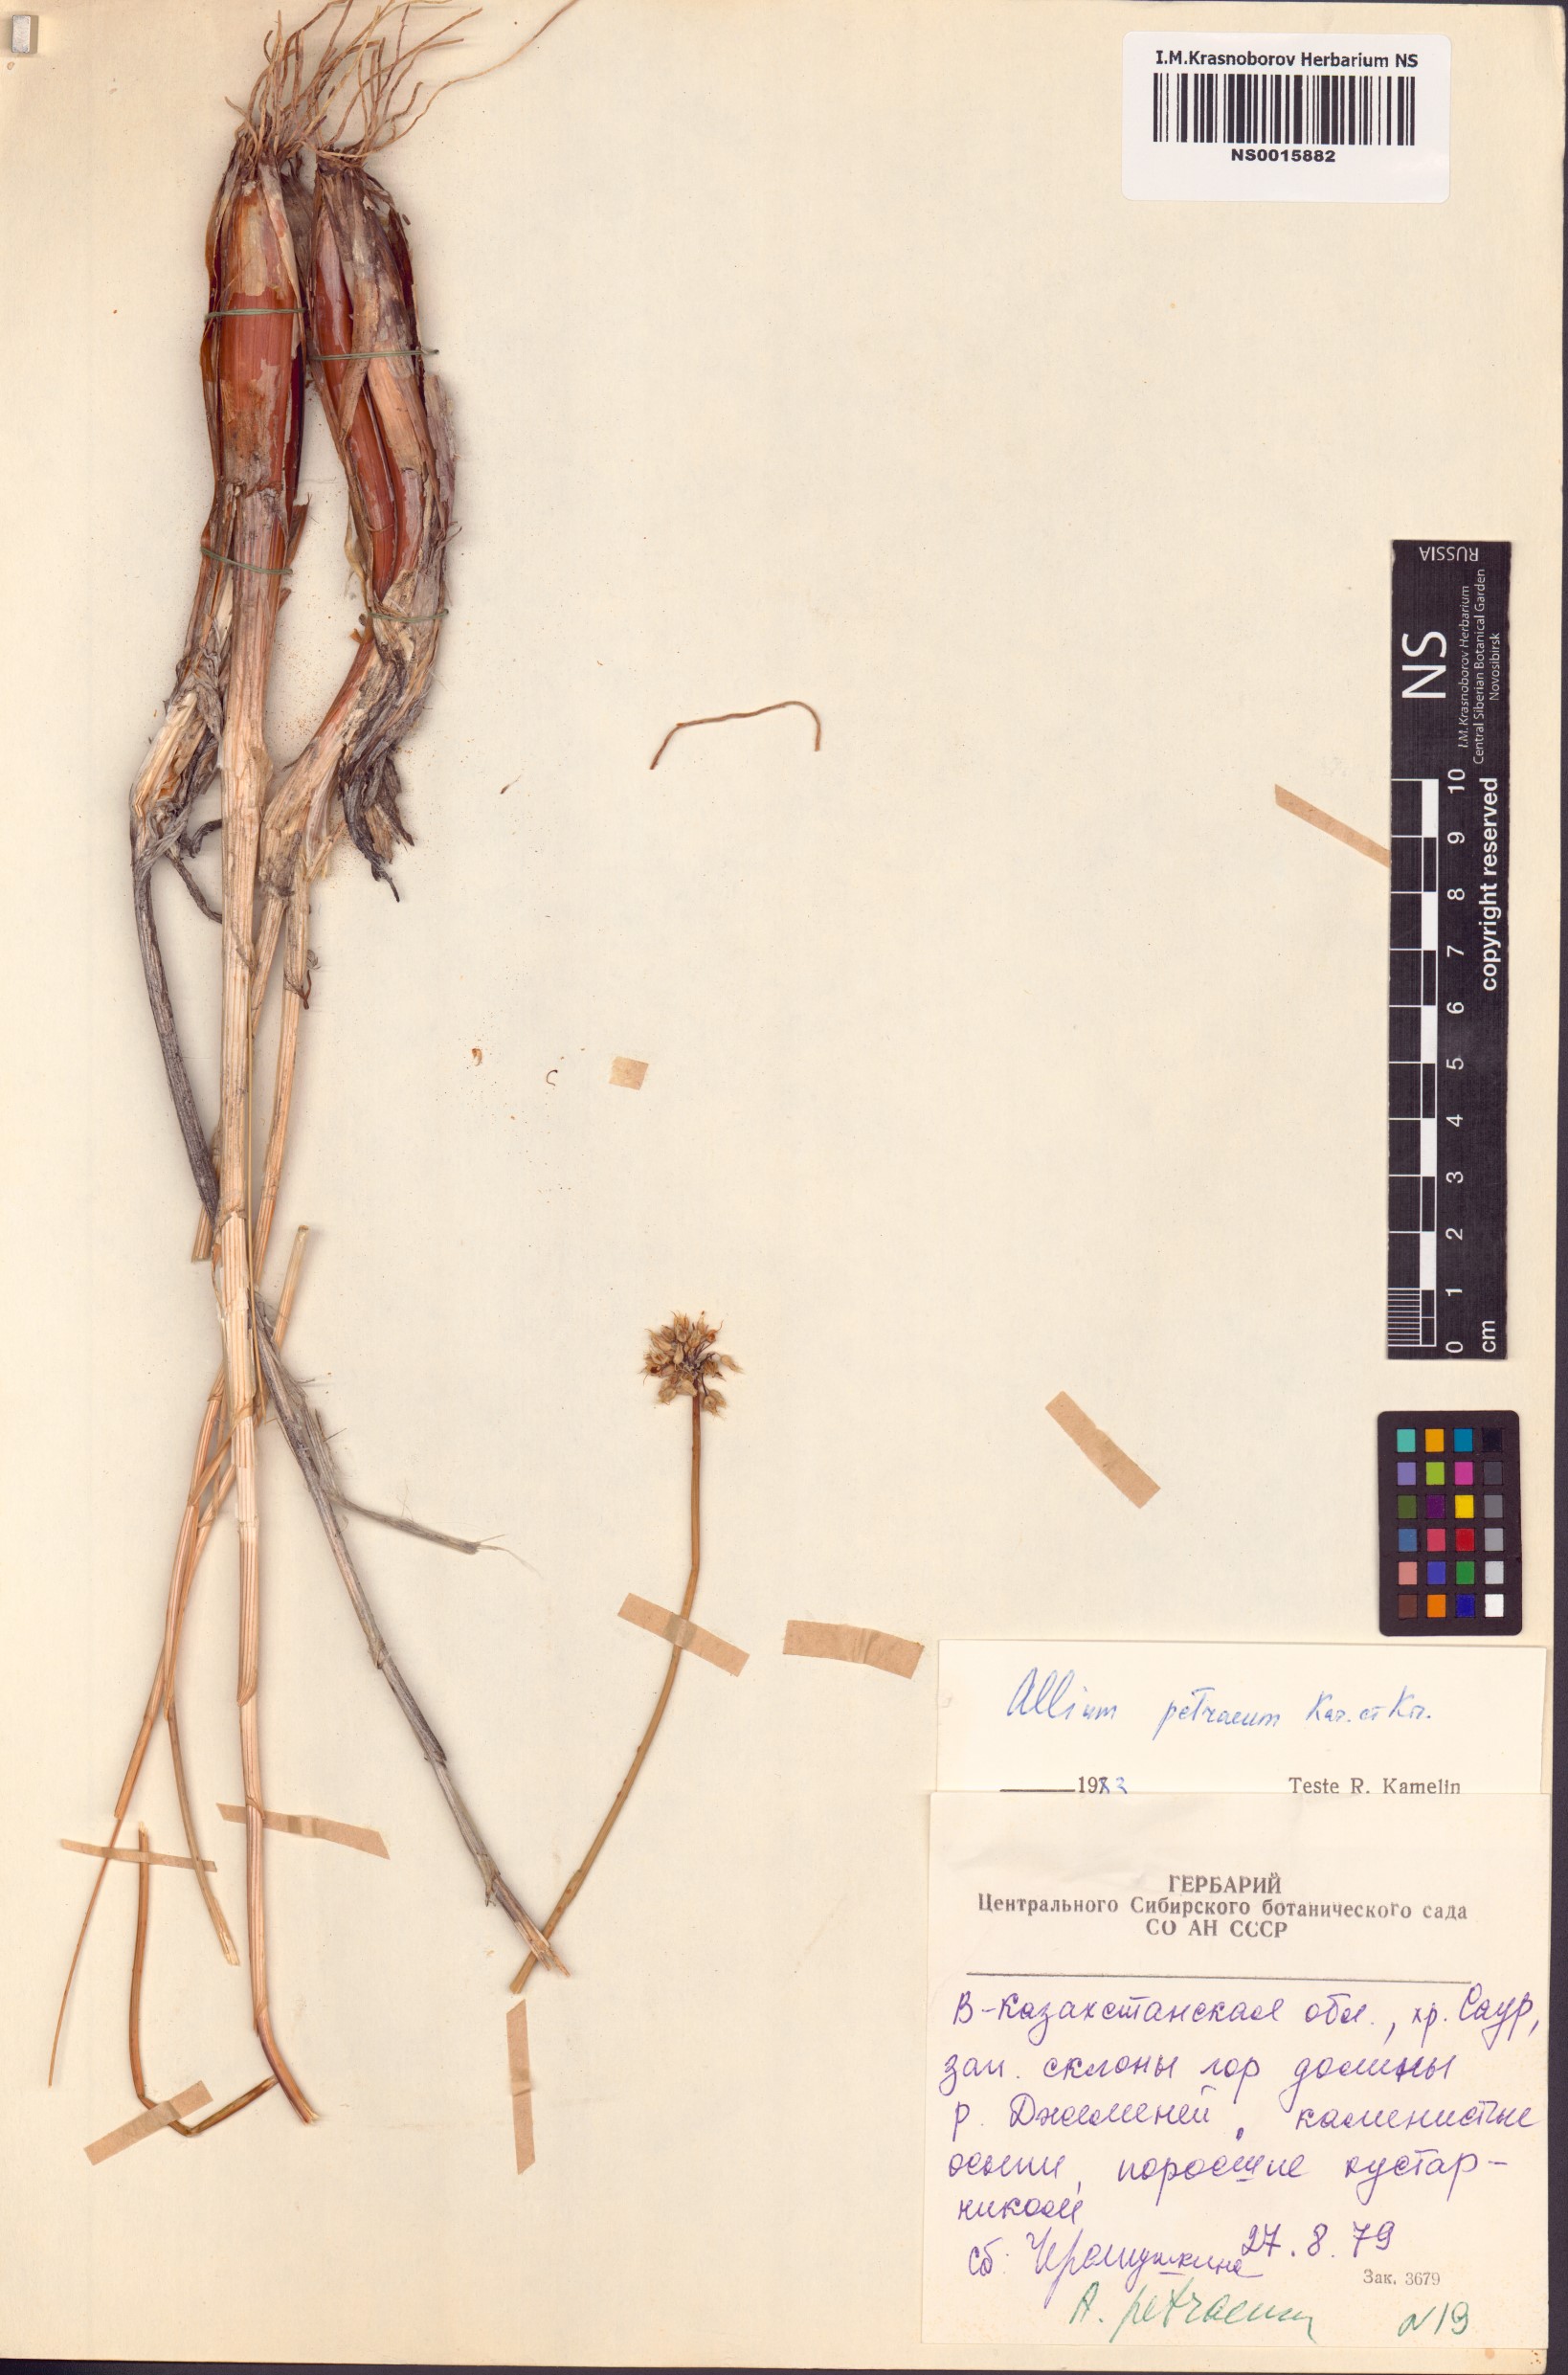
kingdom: Plantae
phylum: Tracheophyta
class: Liliopsida
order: Asparagales
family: Amaryllidaceae
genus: Allium
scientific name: Allium petraeum
